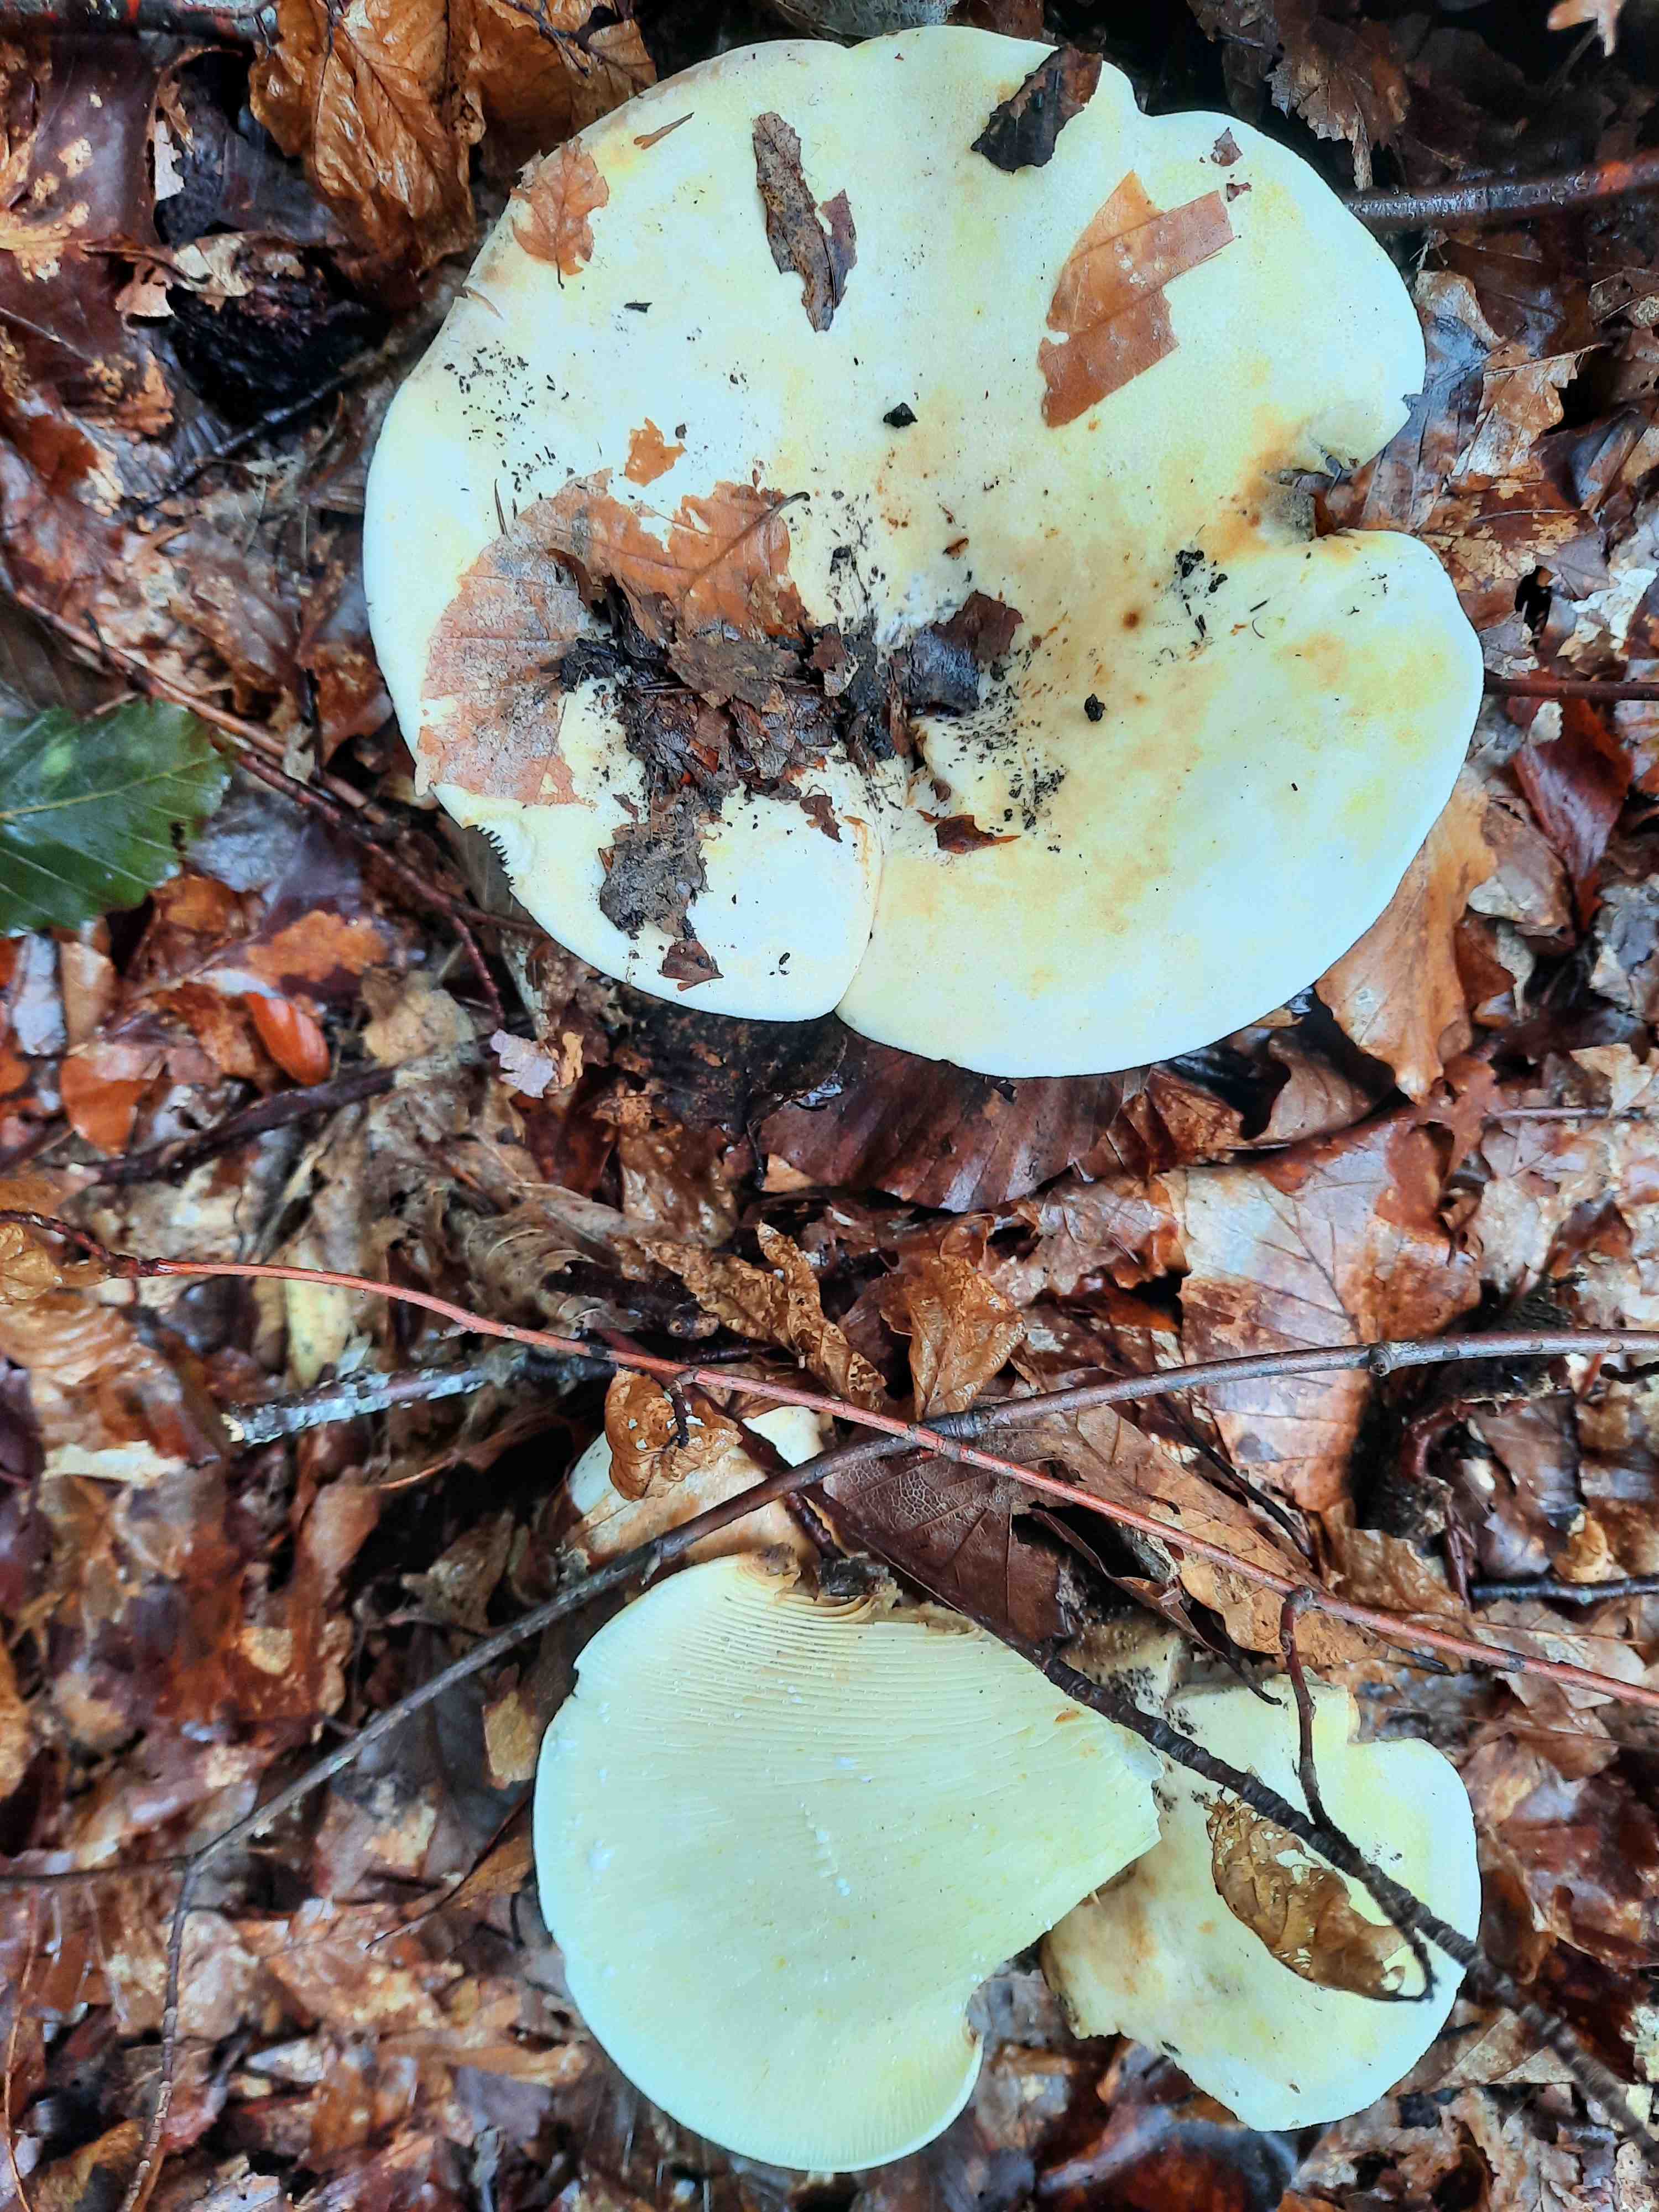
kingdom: Fungi
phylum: Basidiomycota
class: Agaricomycetes
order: Russulales
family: Russulaceae
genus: Lactifluus
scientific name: Lactifluus vellereus
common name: hvidfiltet mælkehat
